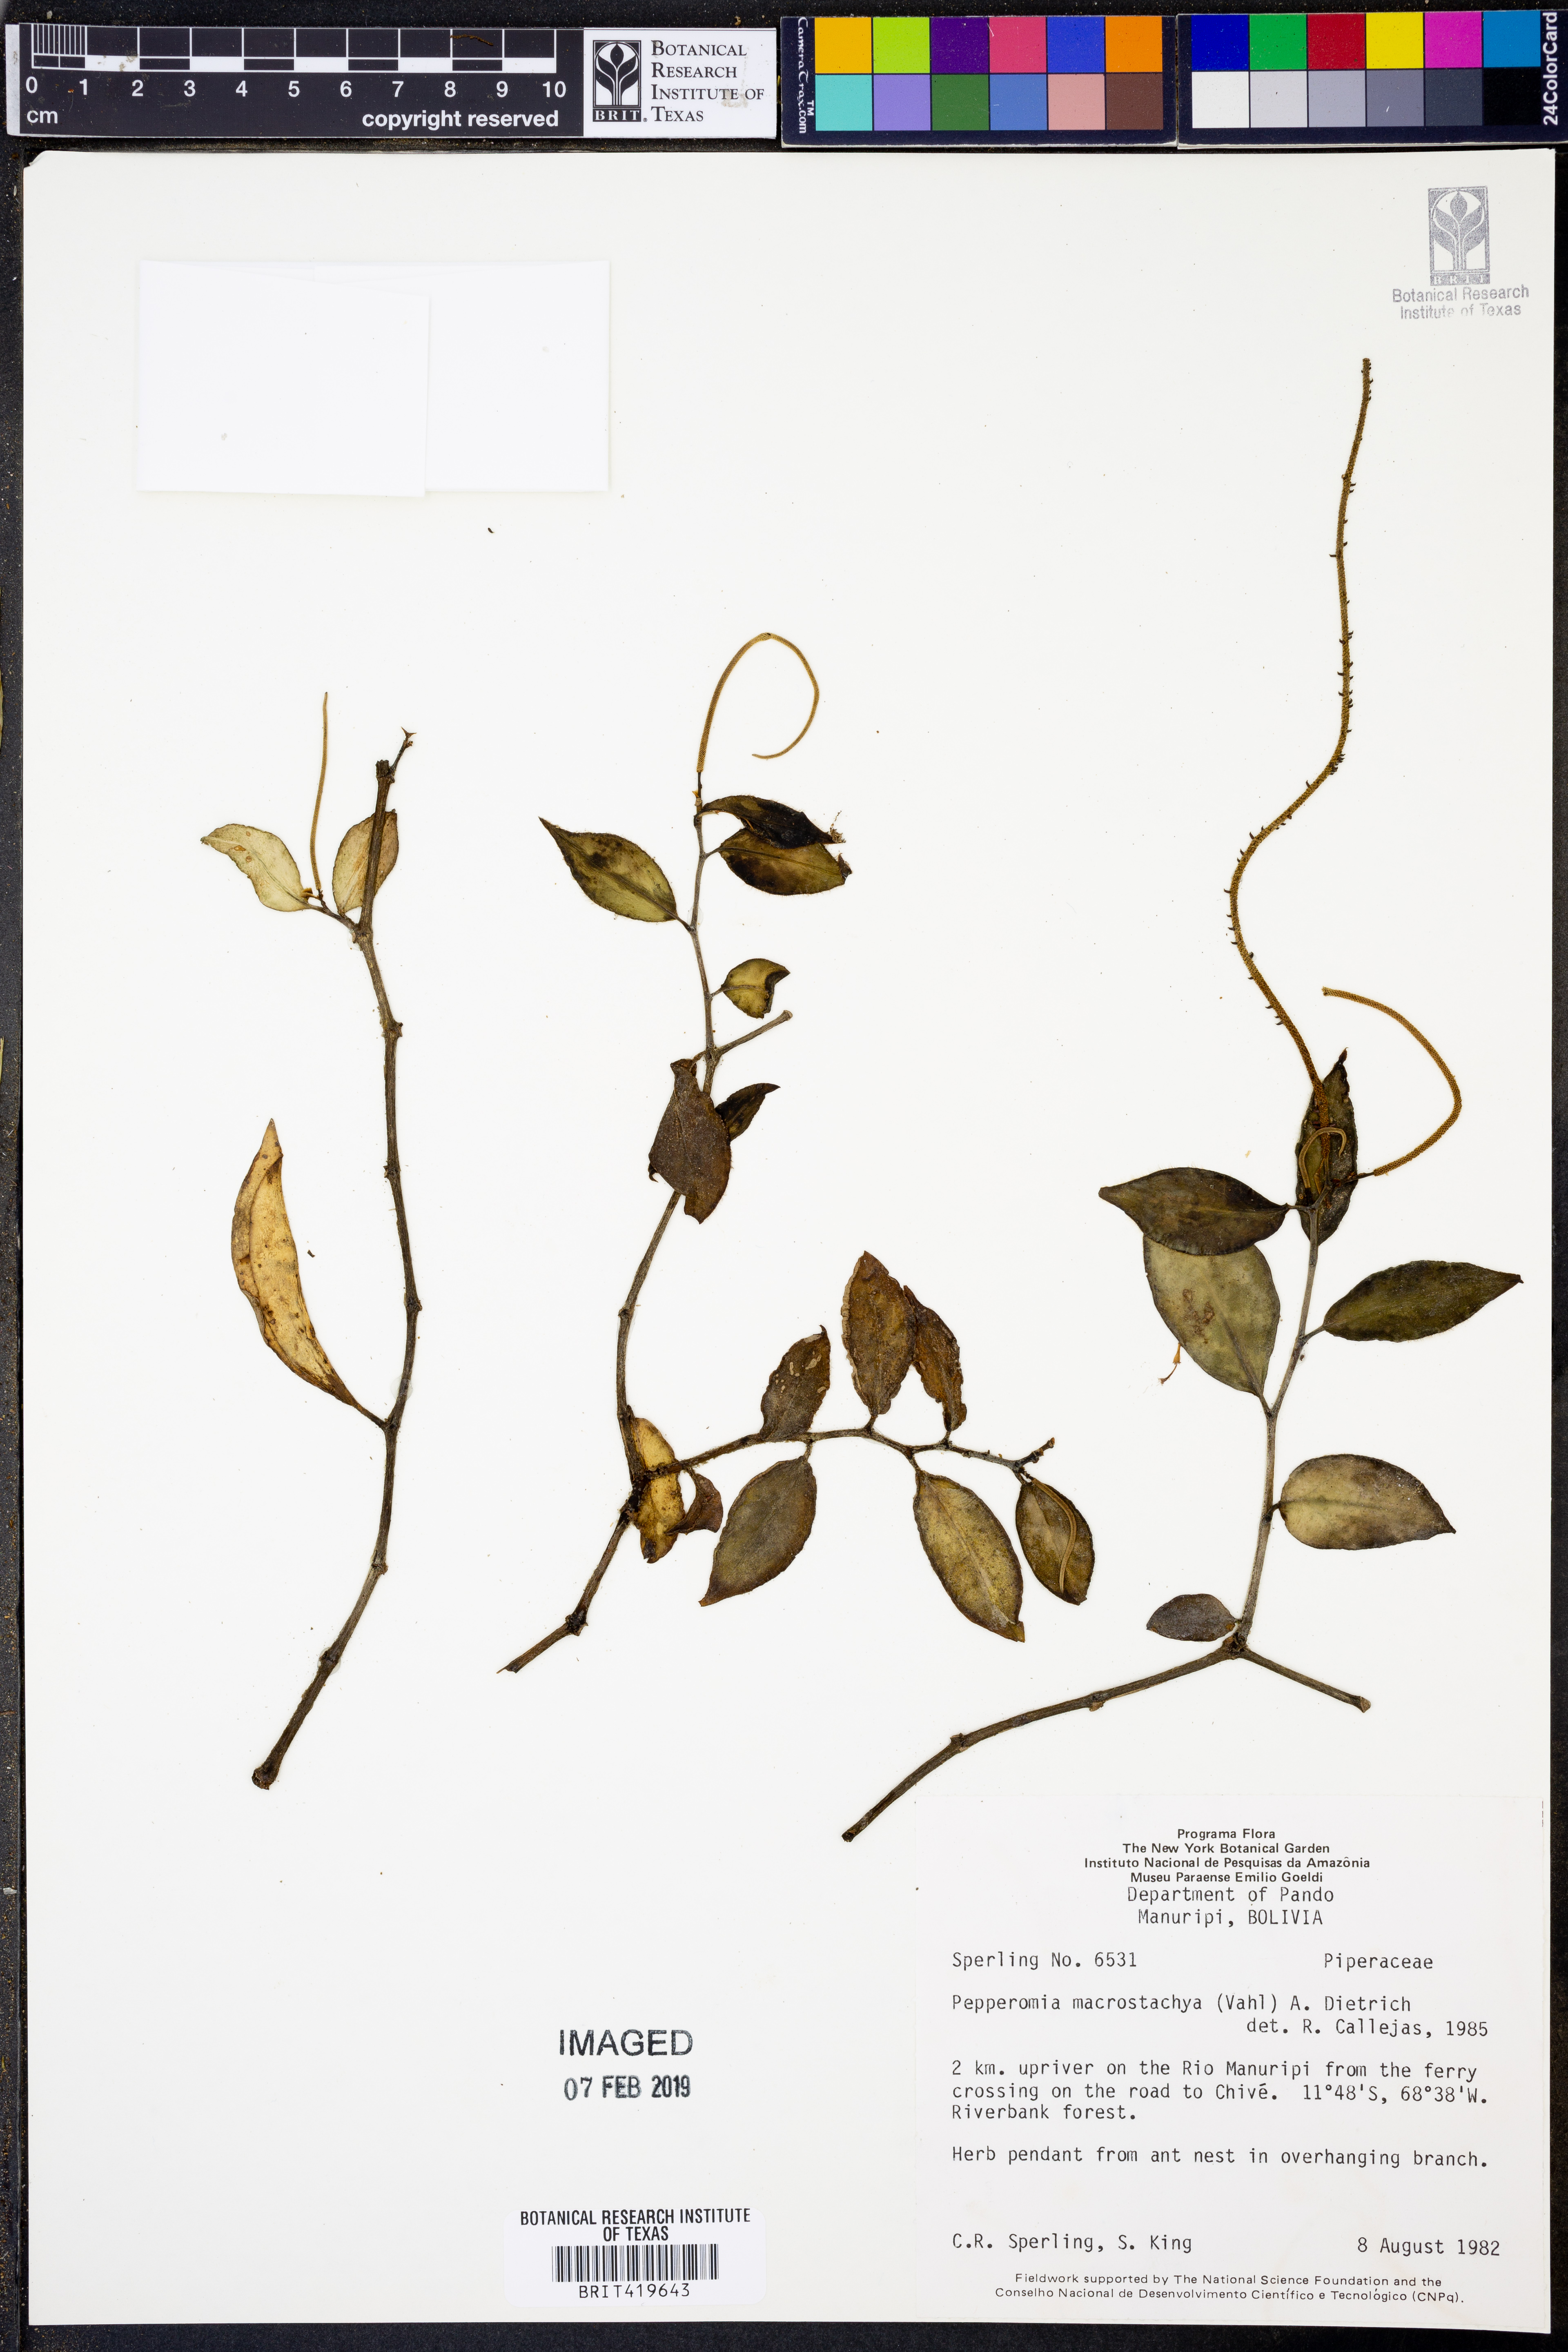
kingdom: Plantae
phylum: Tracheophyta
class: Magnoliopsida
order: Piperales
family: Piperaceae
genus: Peperomia
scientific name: Peperomia macrostachyos
